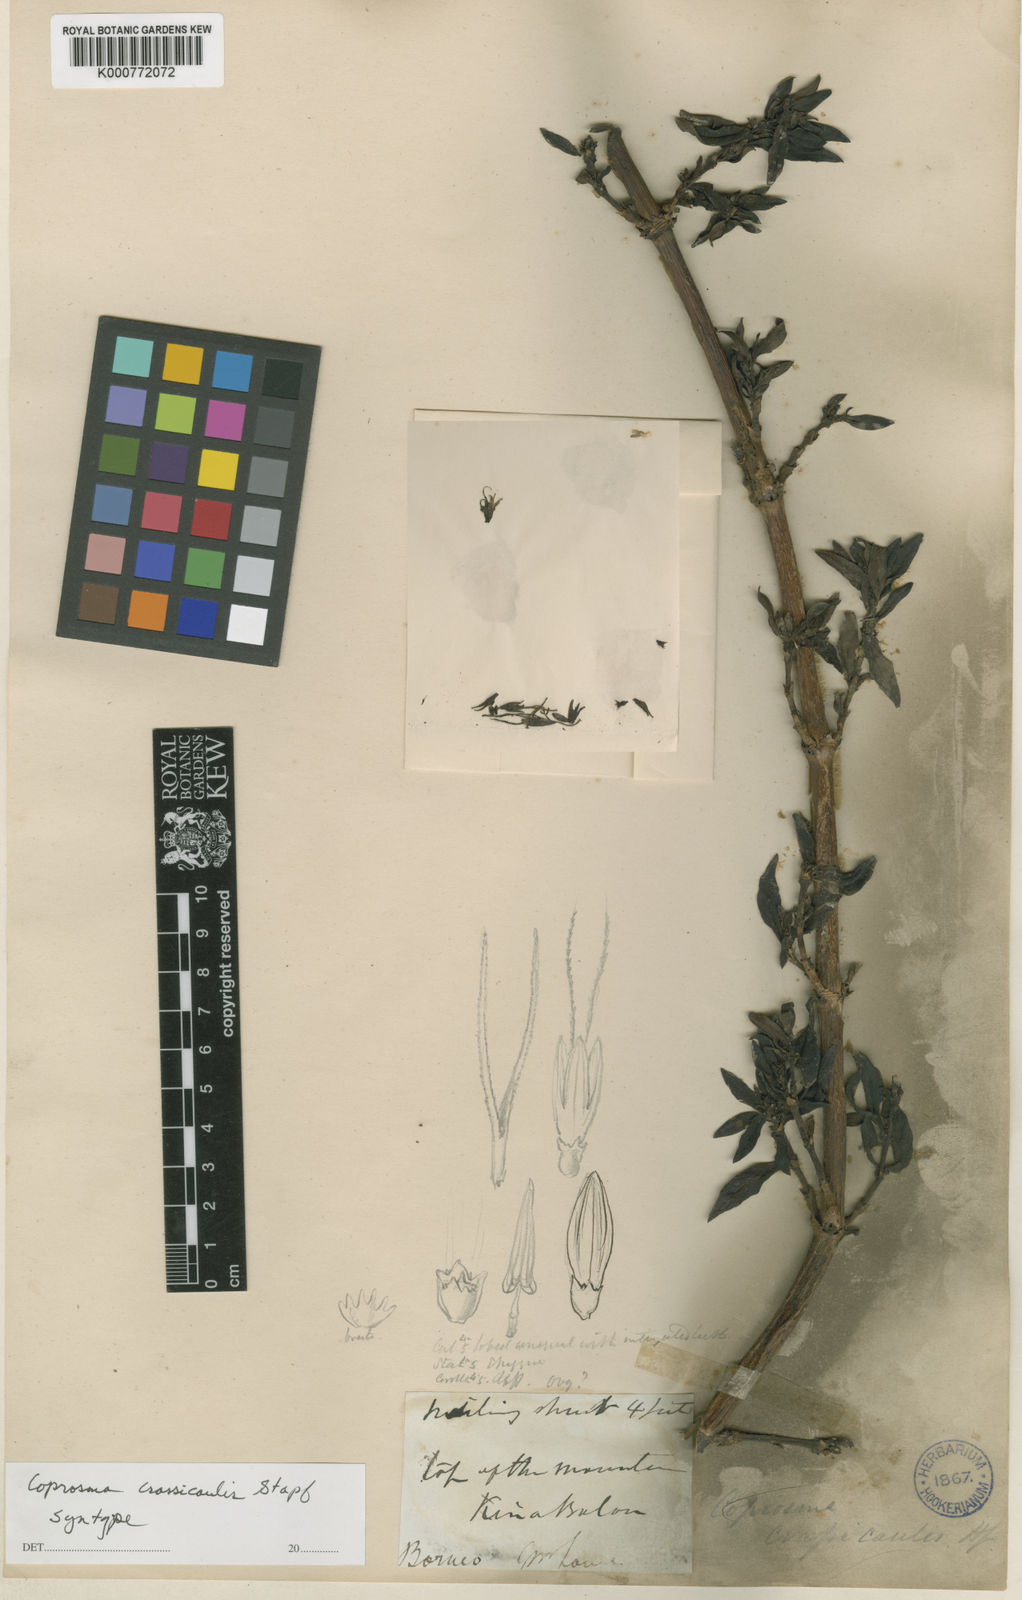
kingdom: Plantae
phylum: Tracheophyta
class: Magnoliopsida
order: Gentianales
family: Rubiaceae
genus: Coprosma
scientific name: Coprosma hookeri
